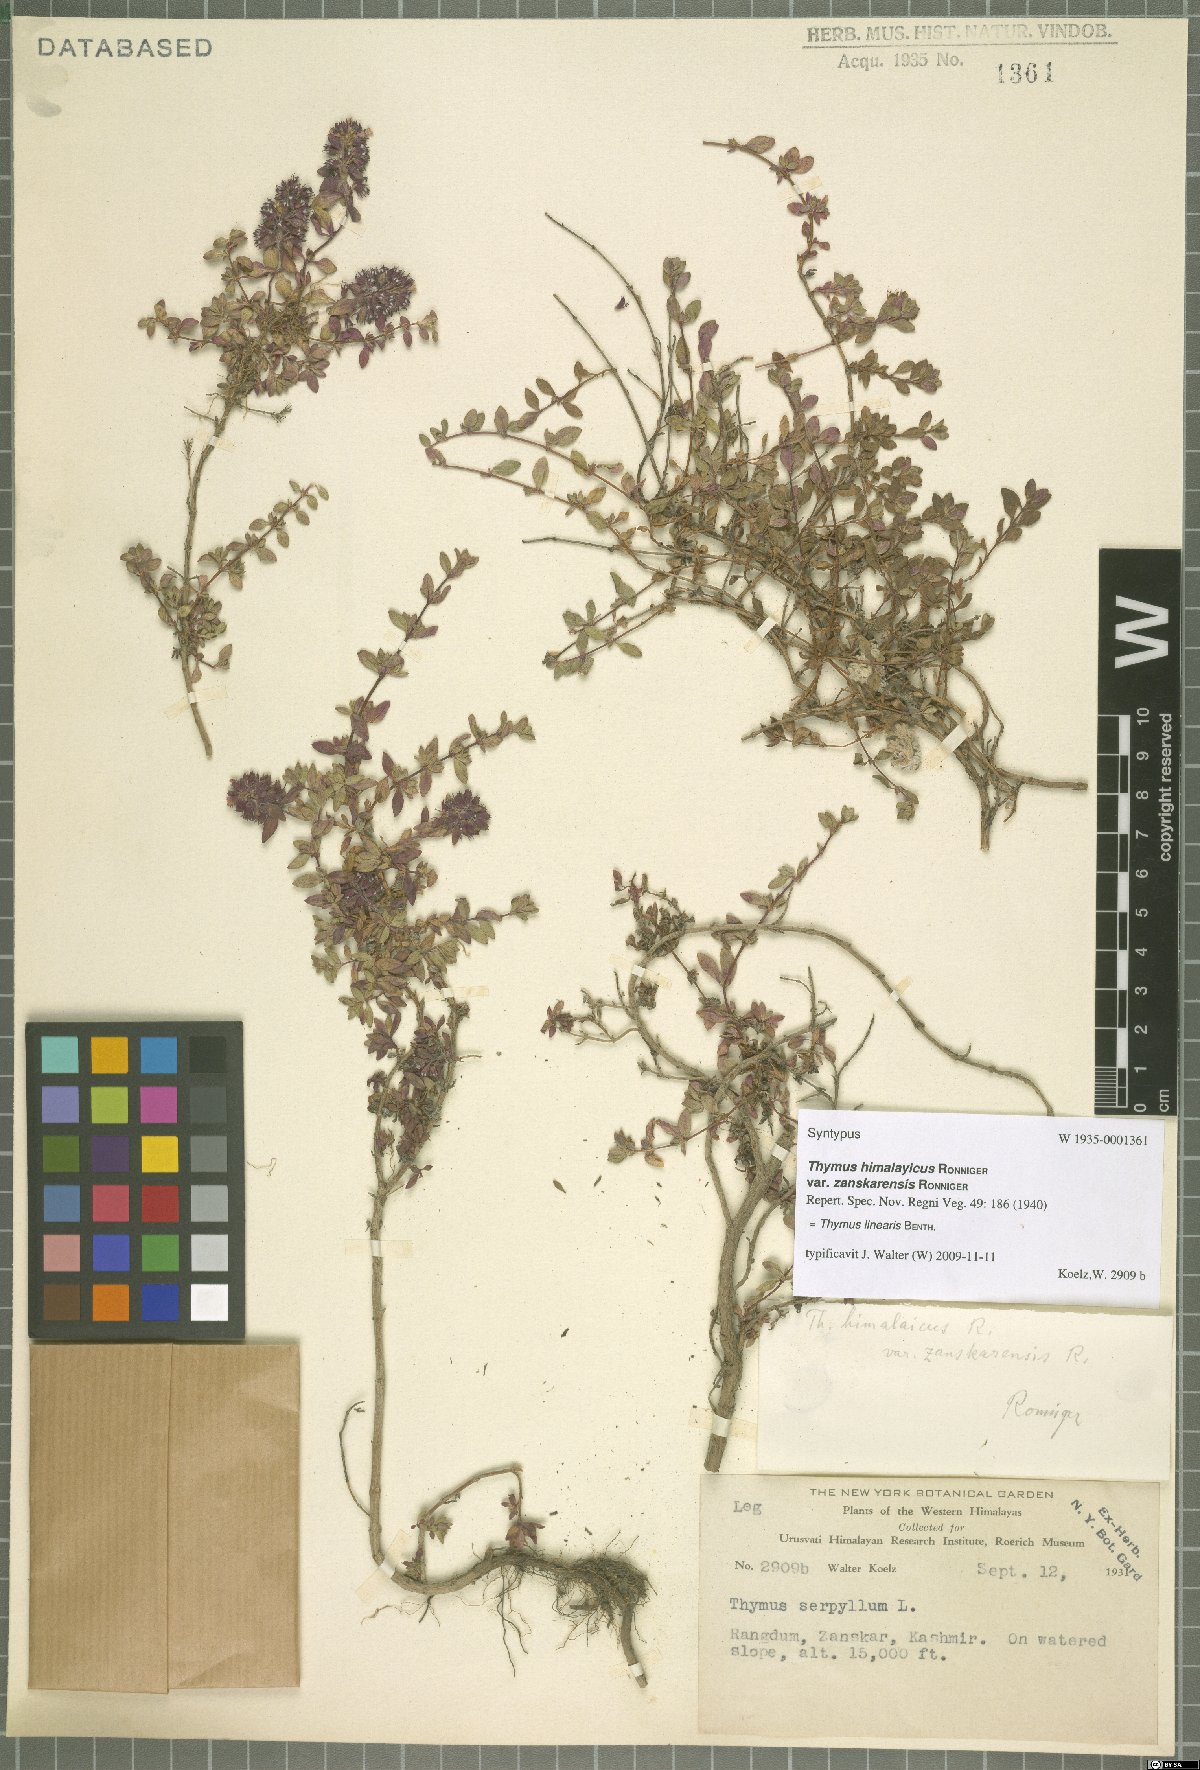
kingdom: Plantae
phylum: Tracheophyta
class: Magnoliopsida
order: Lamiales
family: Lamiaceae
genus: Thymus
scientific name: Thymus linearis
